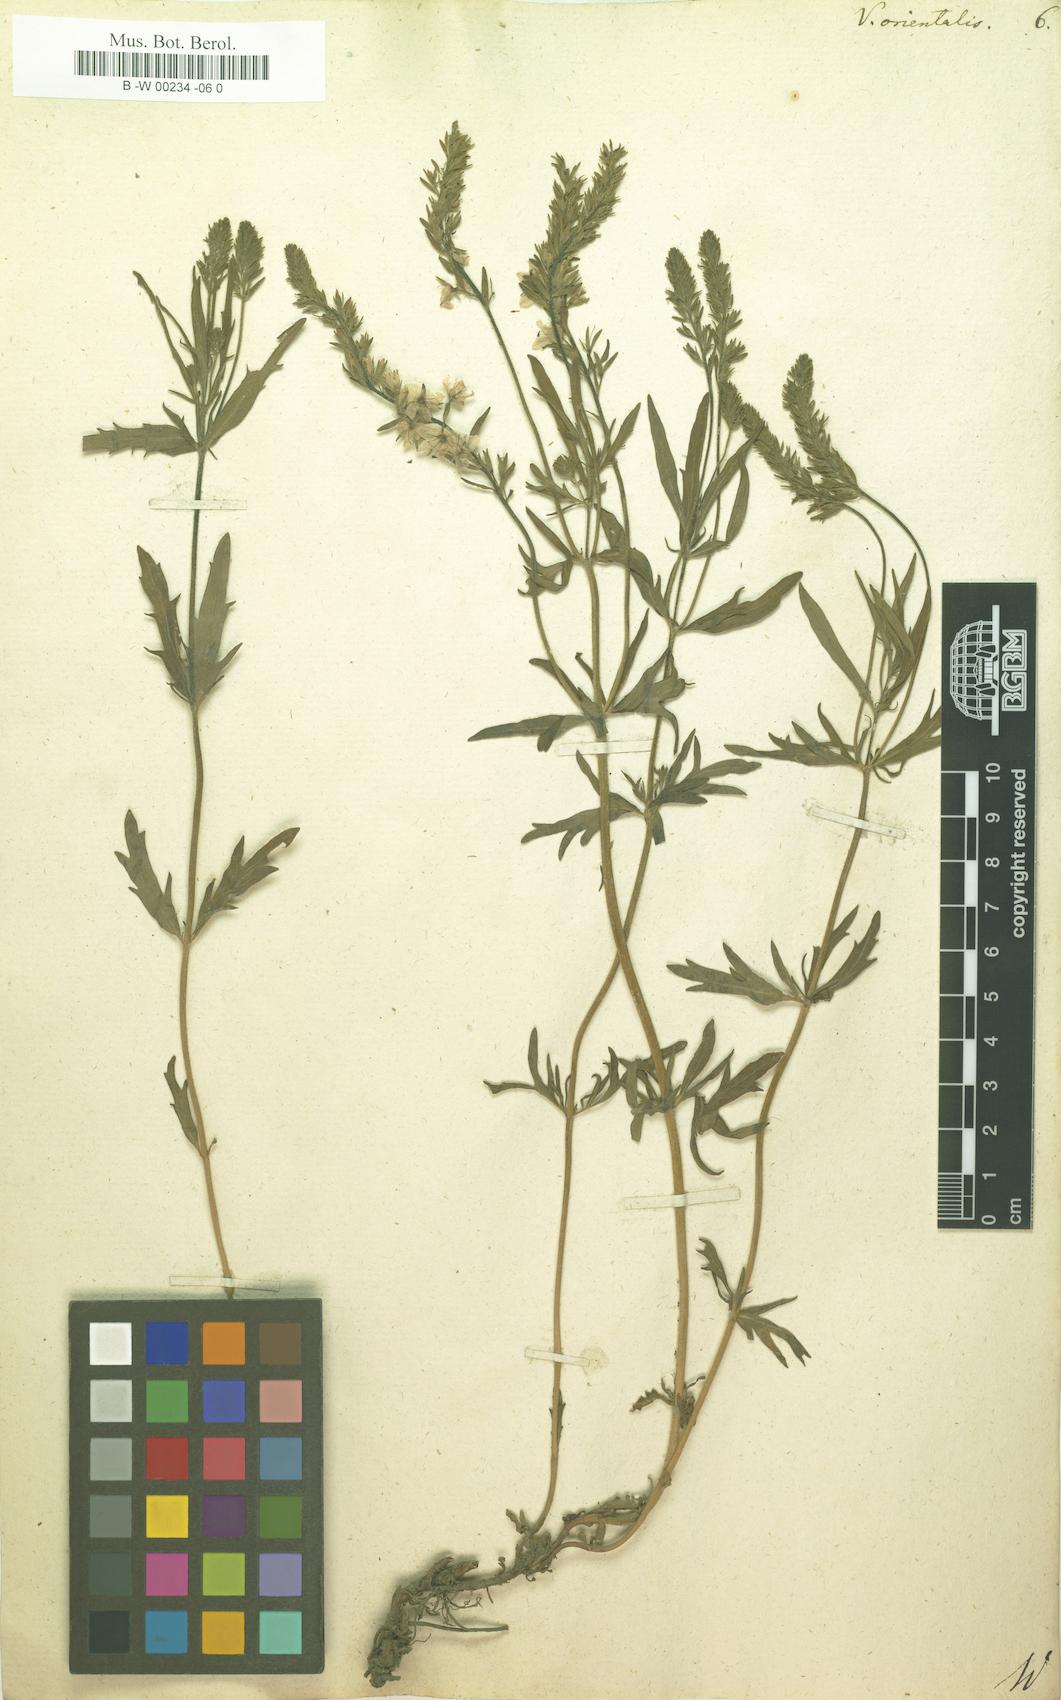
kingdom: Plantae
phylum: Tracheophyta
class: Magnoliopsida
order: Lamiales
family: Plantaginaceae
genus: Veronica
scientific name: Veronica orientalis
